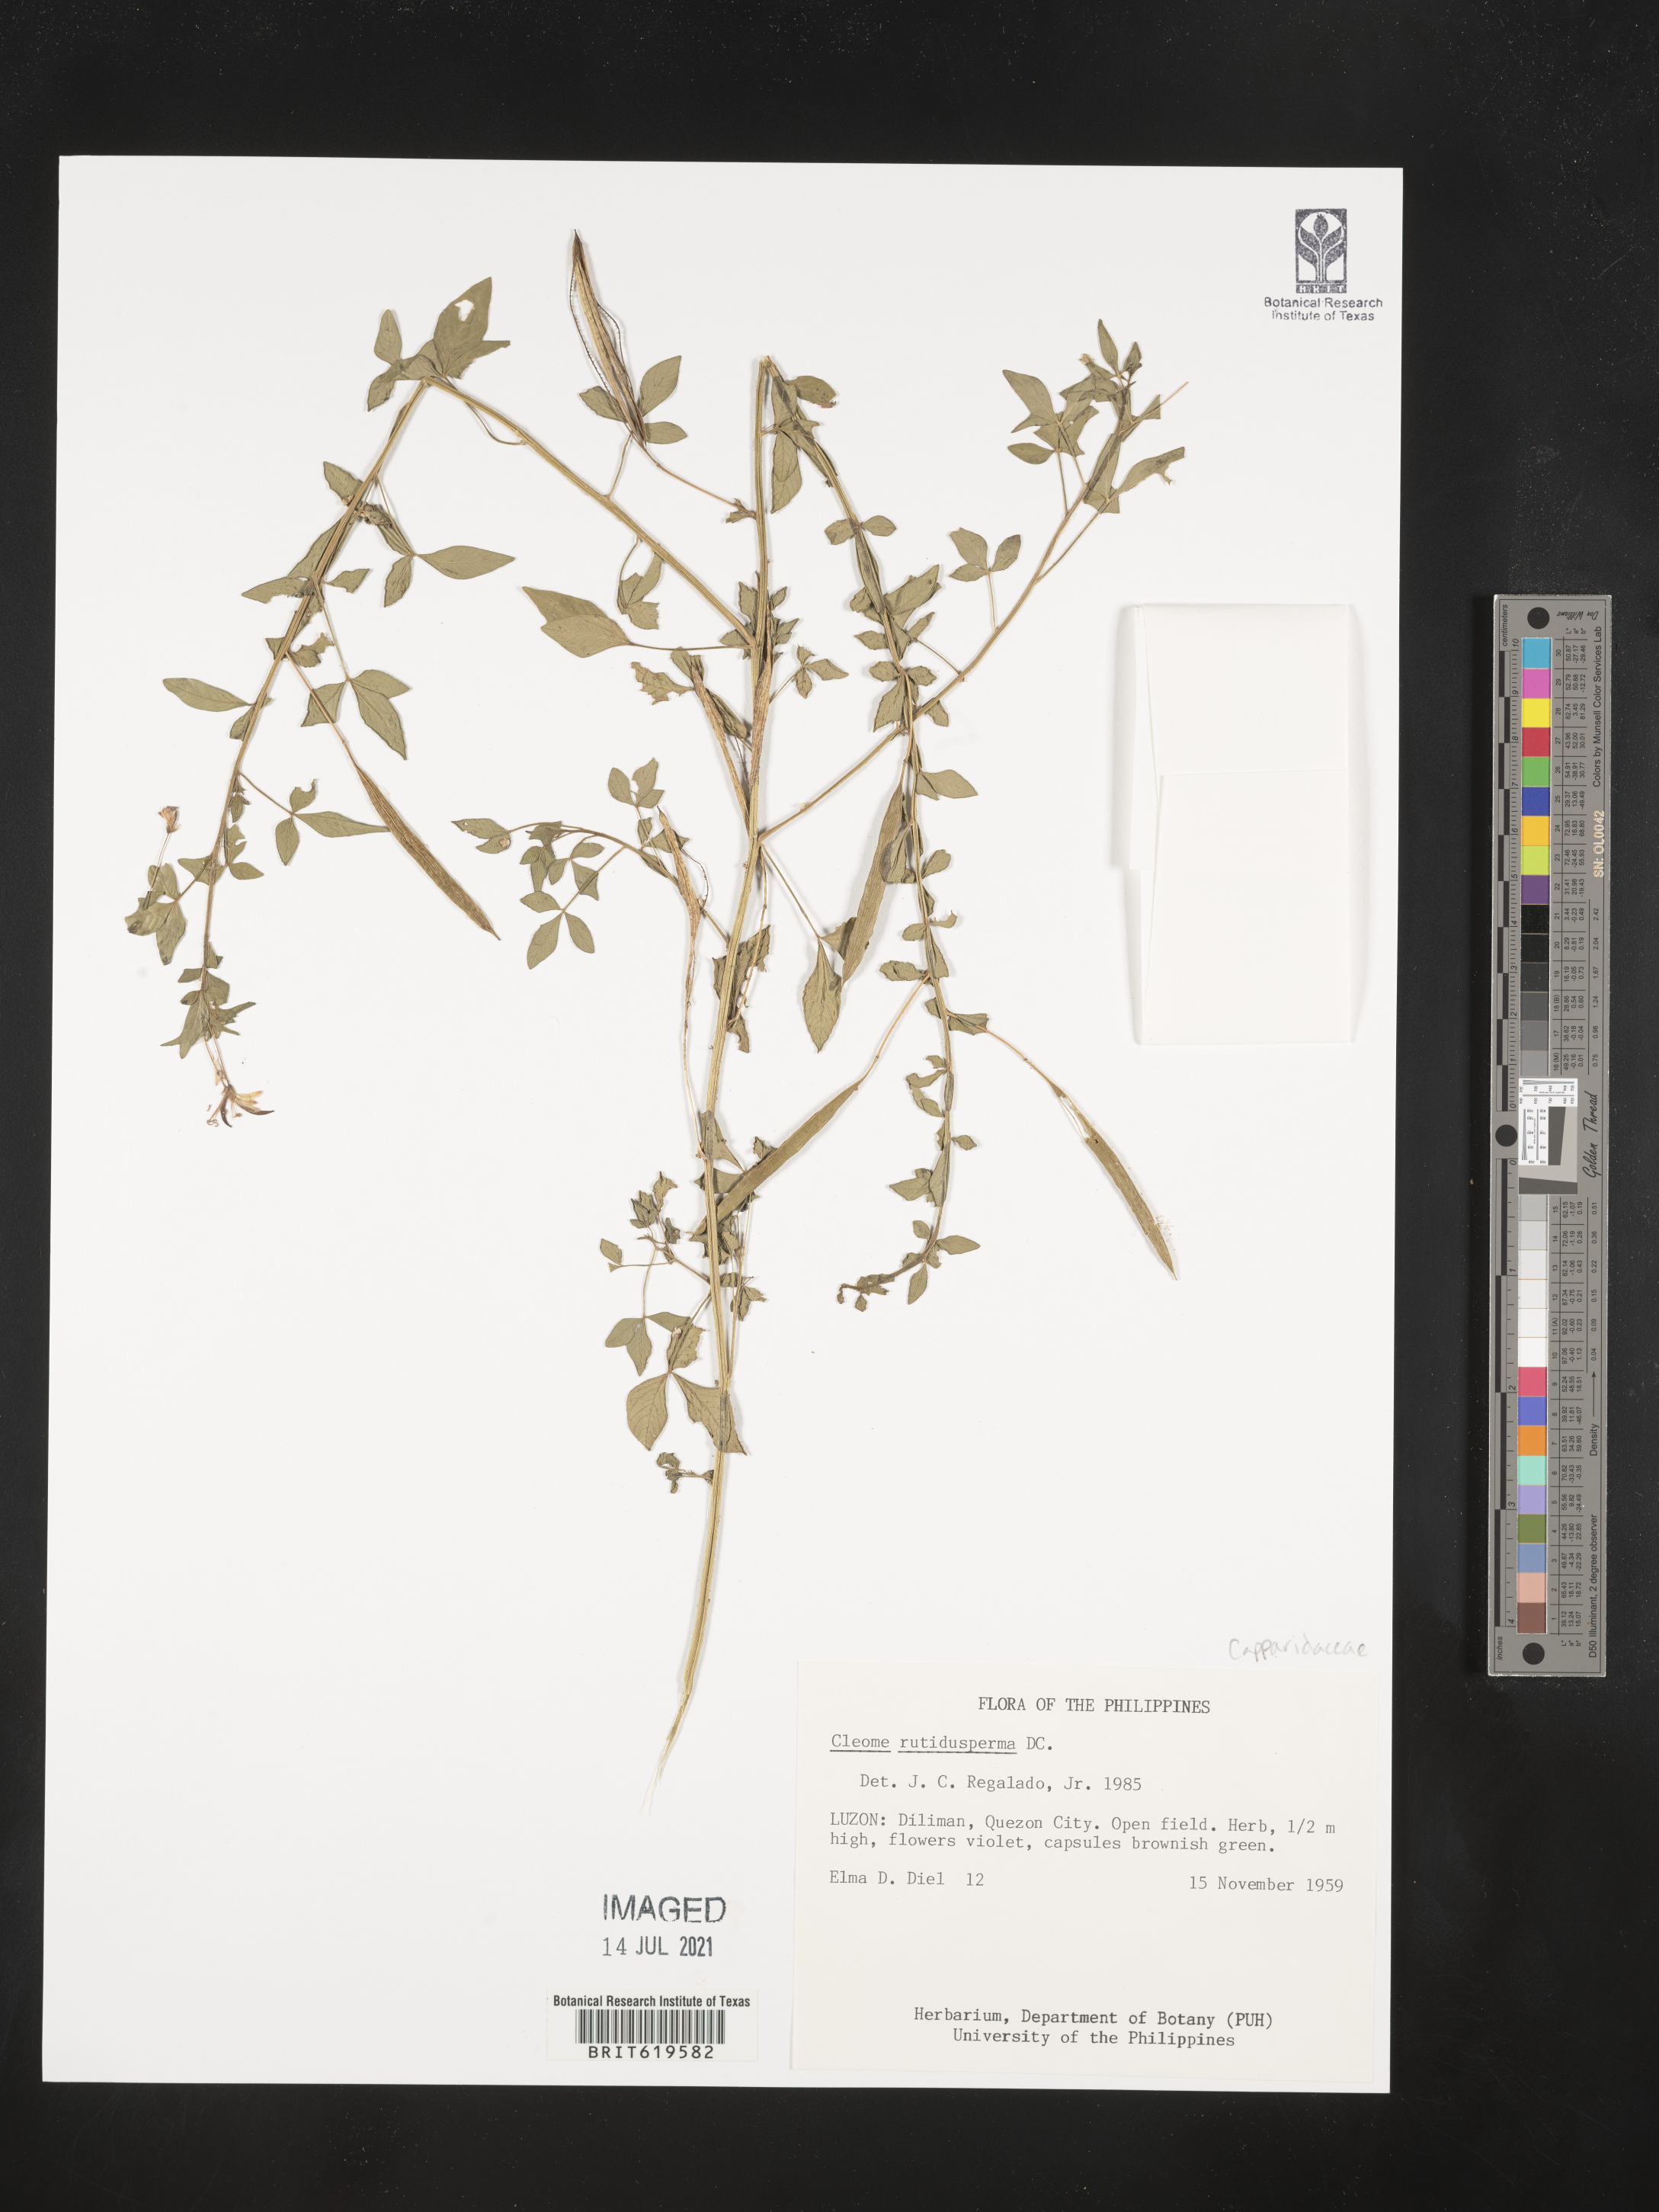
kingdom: Plantae
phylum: Tracheophyta
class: Magnoliopsida
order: Brassicales
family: Cleomaceae
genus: Sieruela
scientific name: Sieruela rutidosperma
